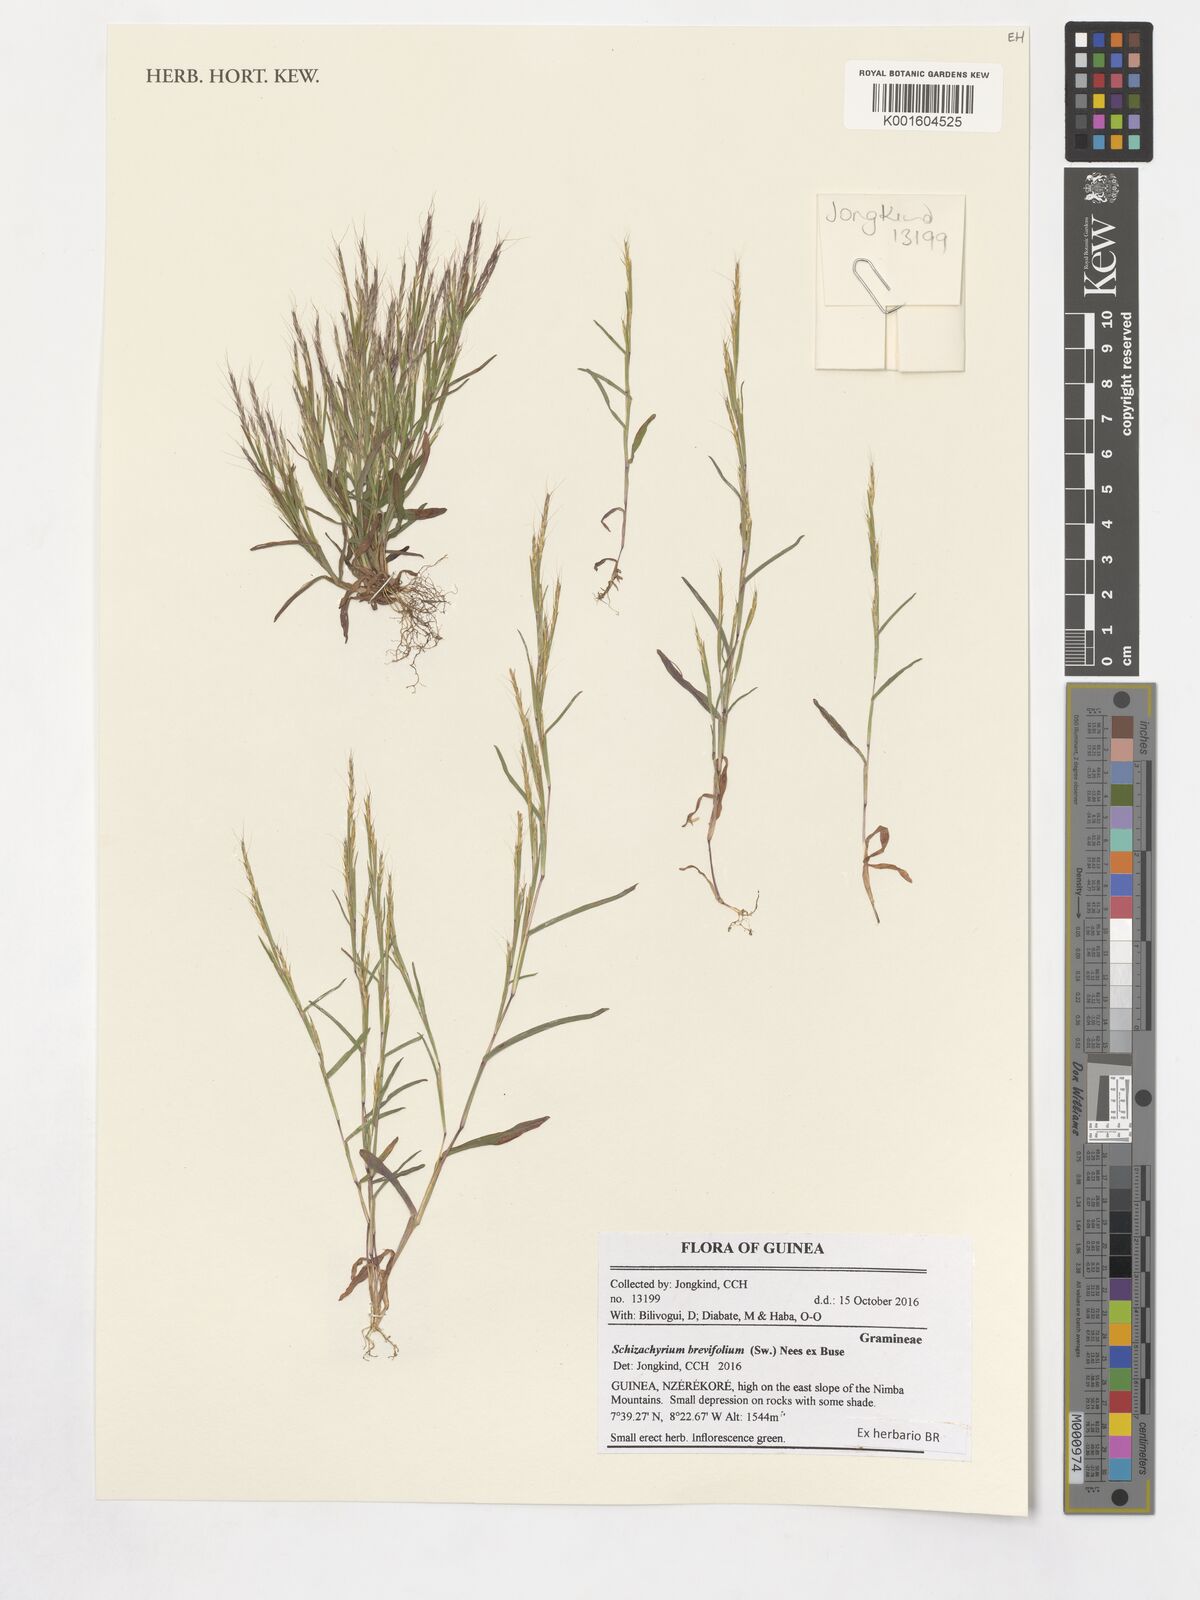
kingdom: Plantae
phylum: Tracheophyta
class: Liliopsida
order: Poales
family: Poaceae
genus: Schizachyrium
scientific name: Schizachyrium brevifolium
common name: Serillo dulce
